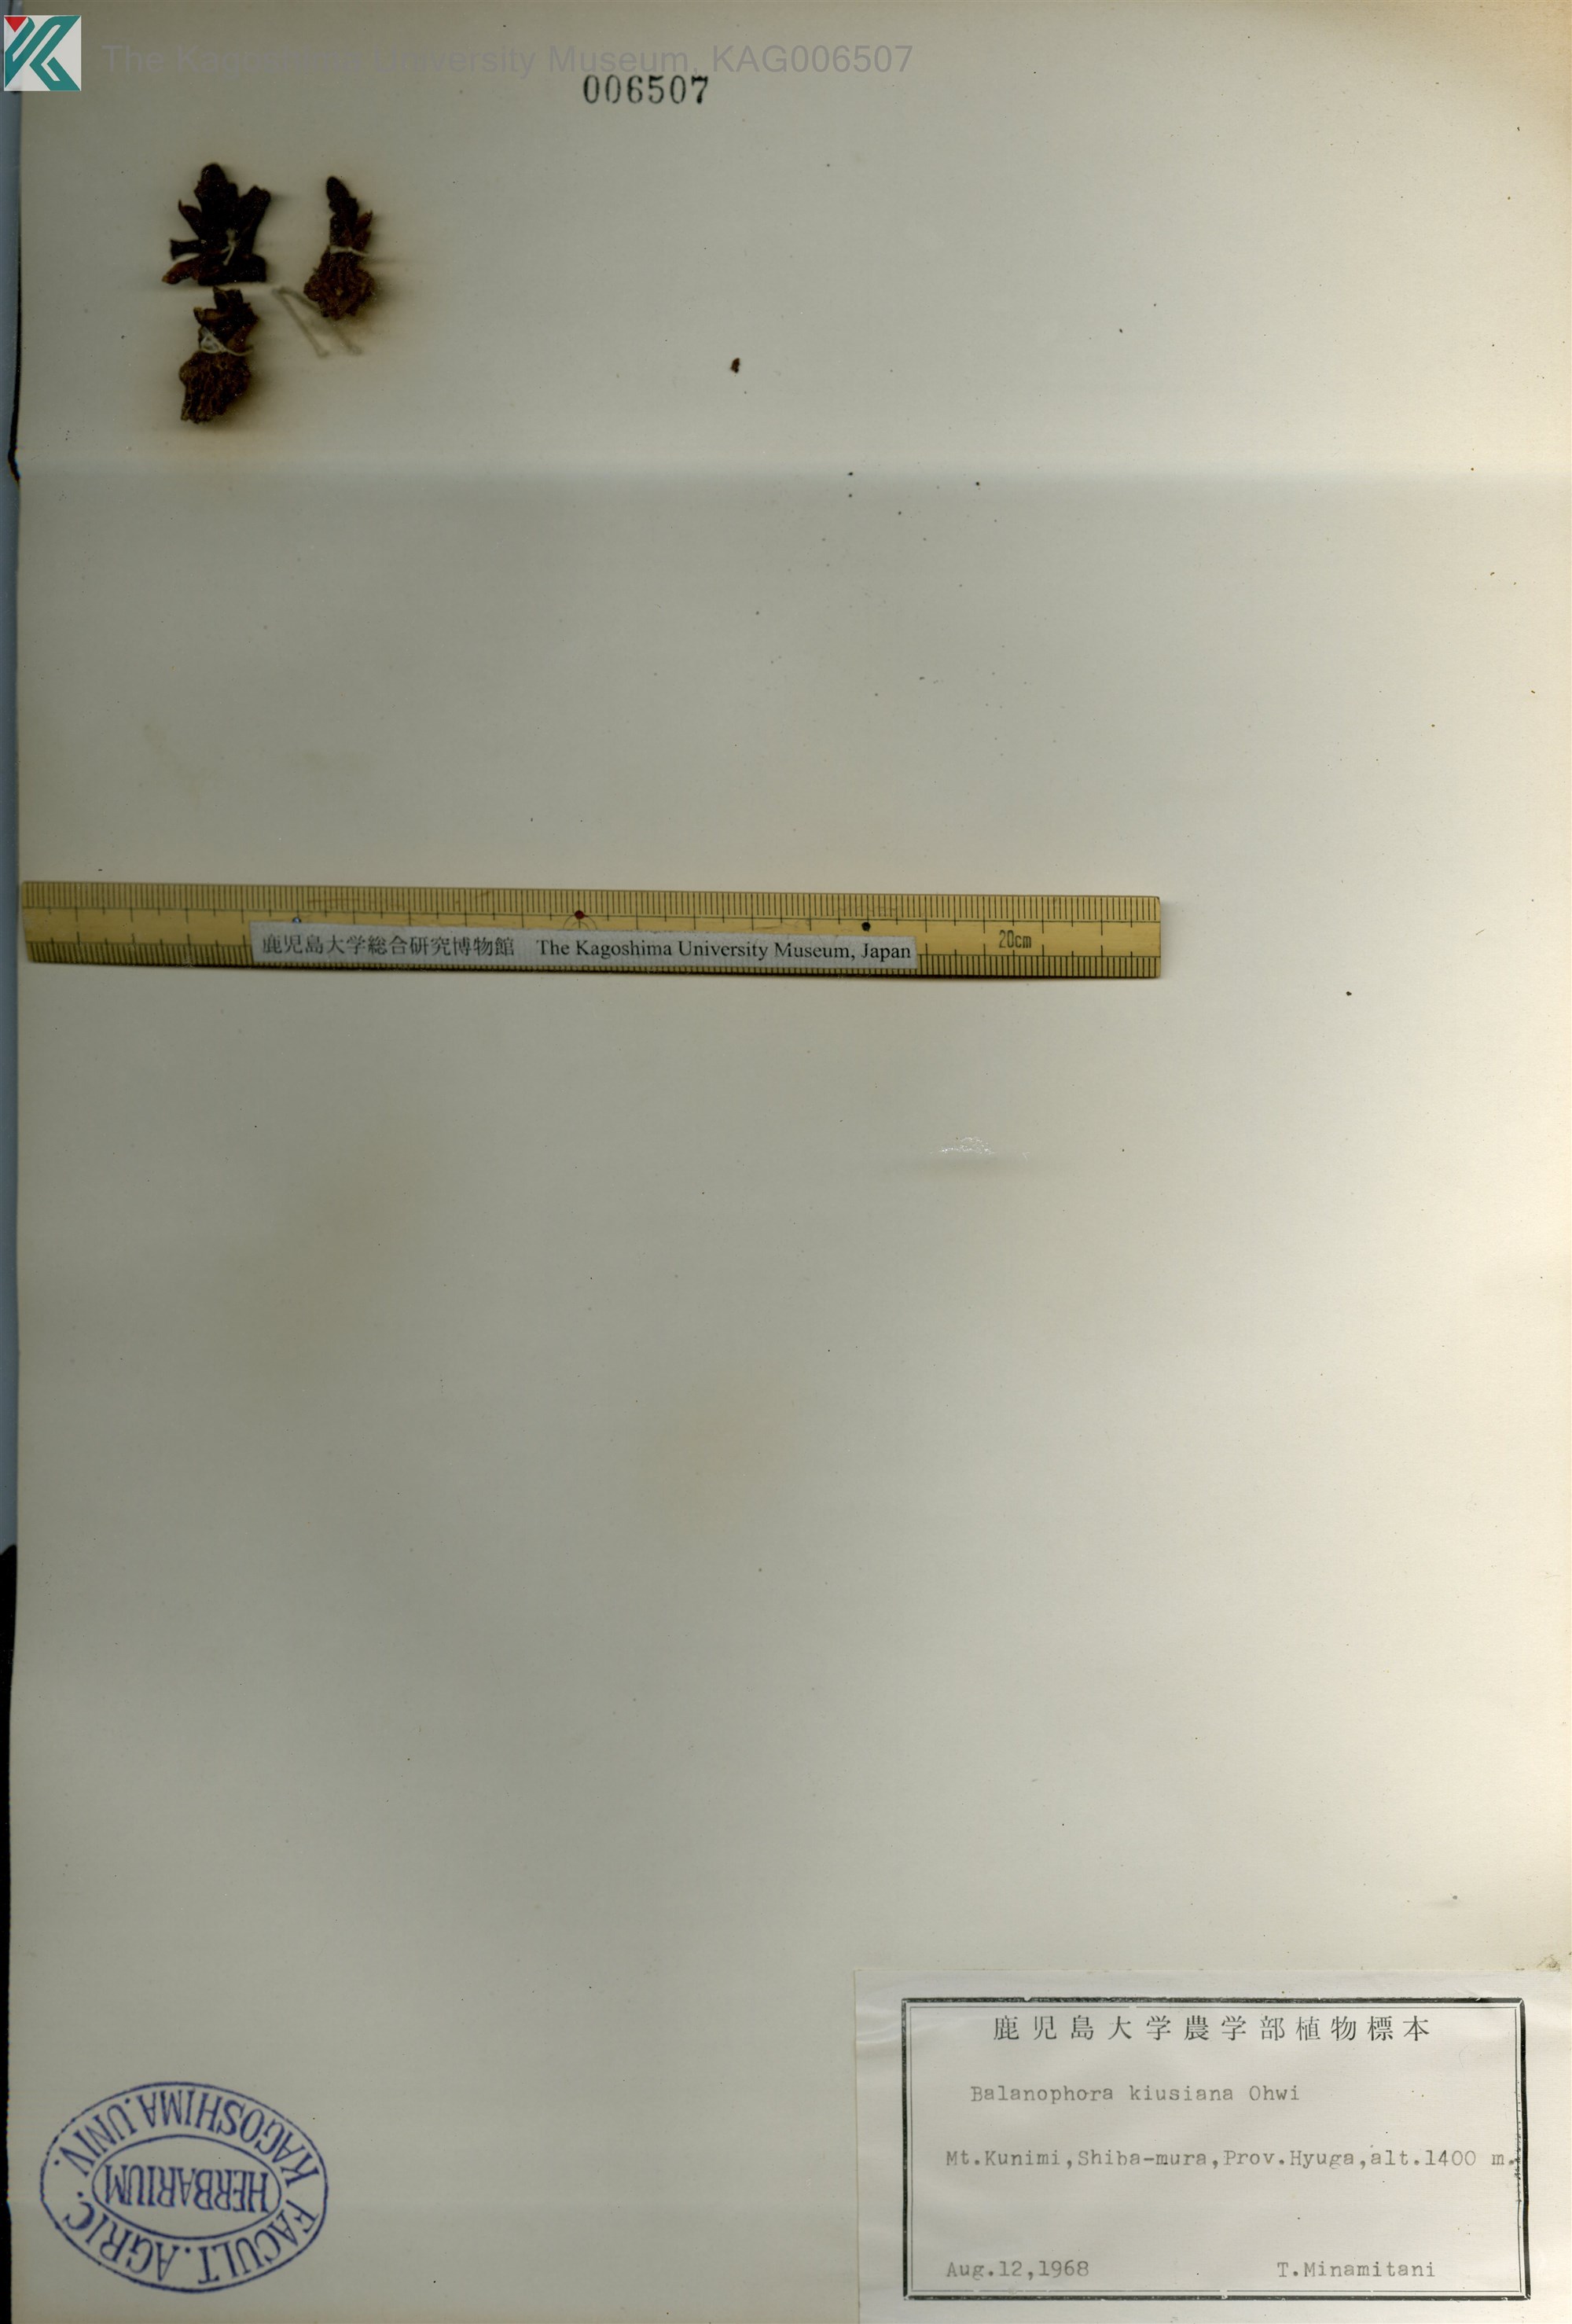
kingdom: Plantae
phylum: Tracheophyta
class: Magnoliopsida
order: Santalales
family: Balanophoraceae
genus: Balanophora
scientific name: Balanophora nipponica
